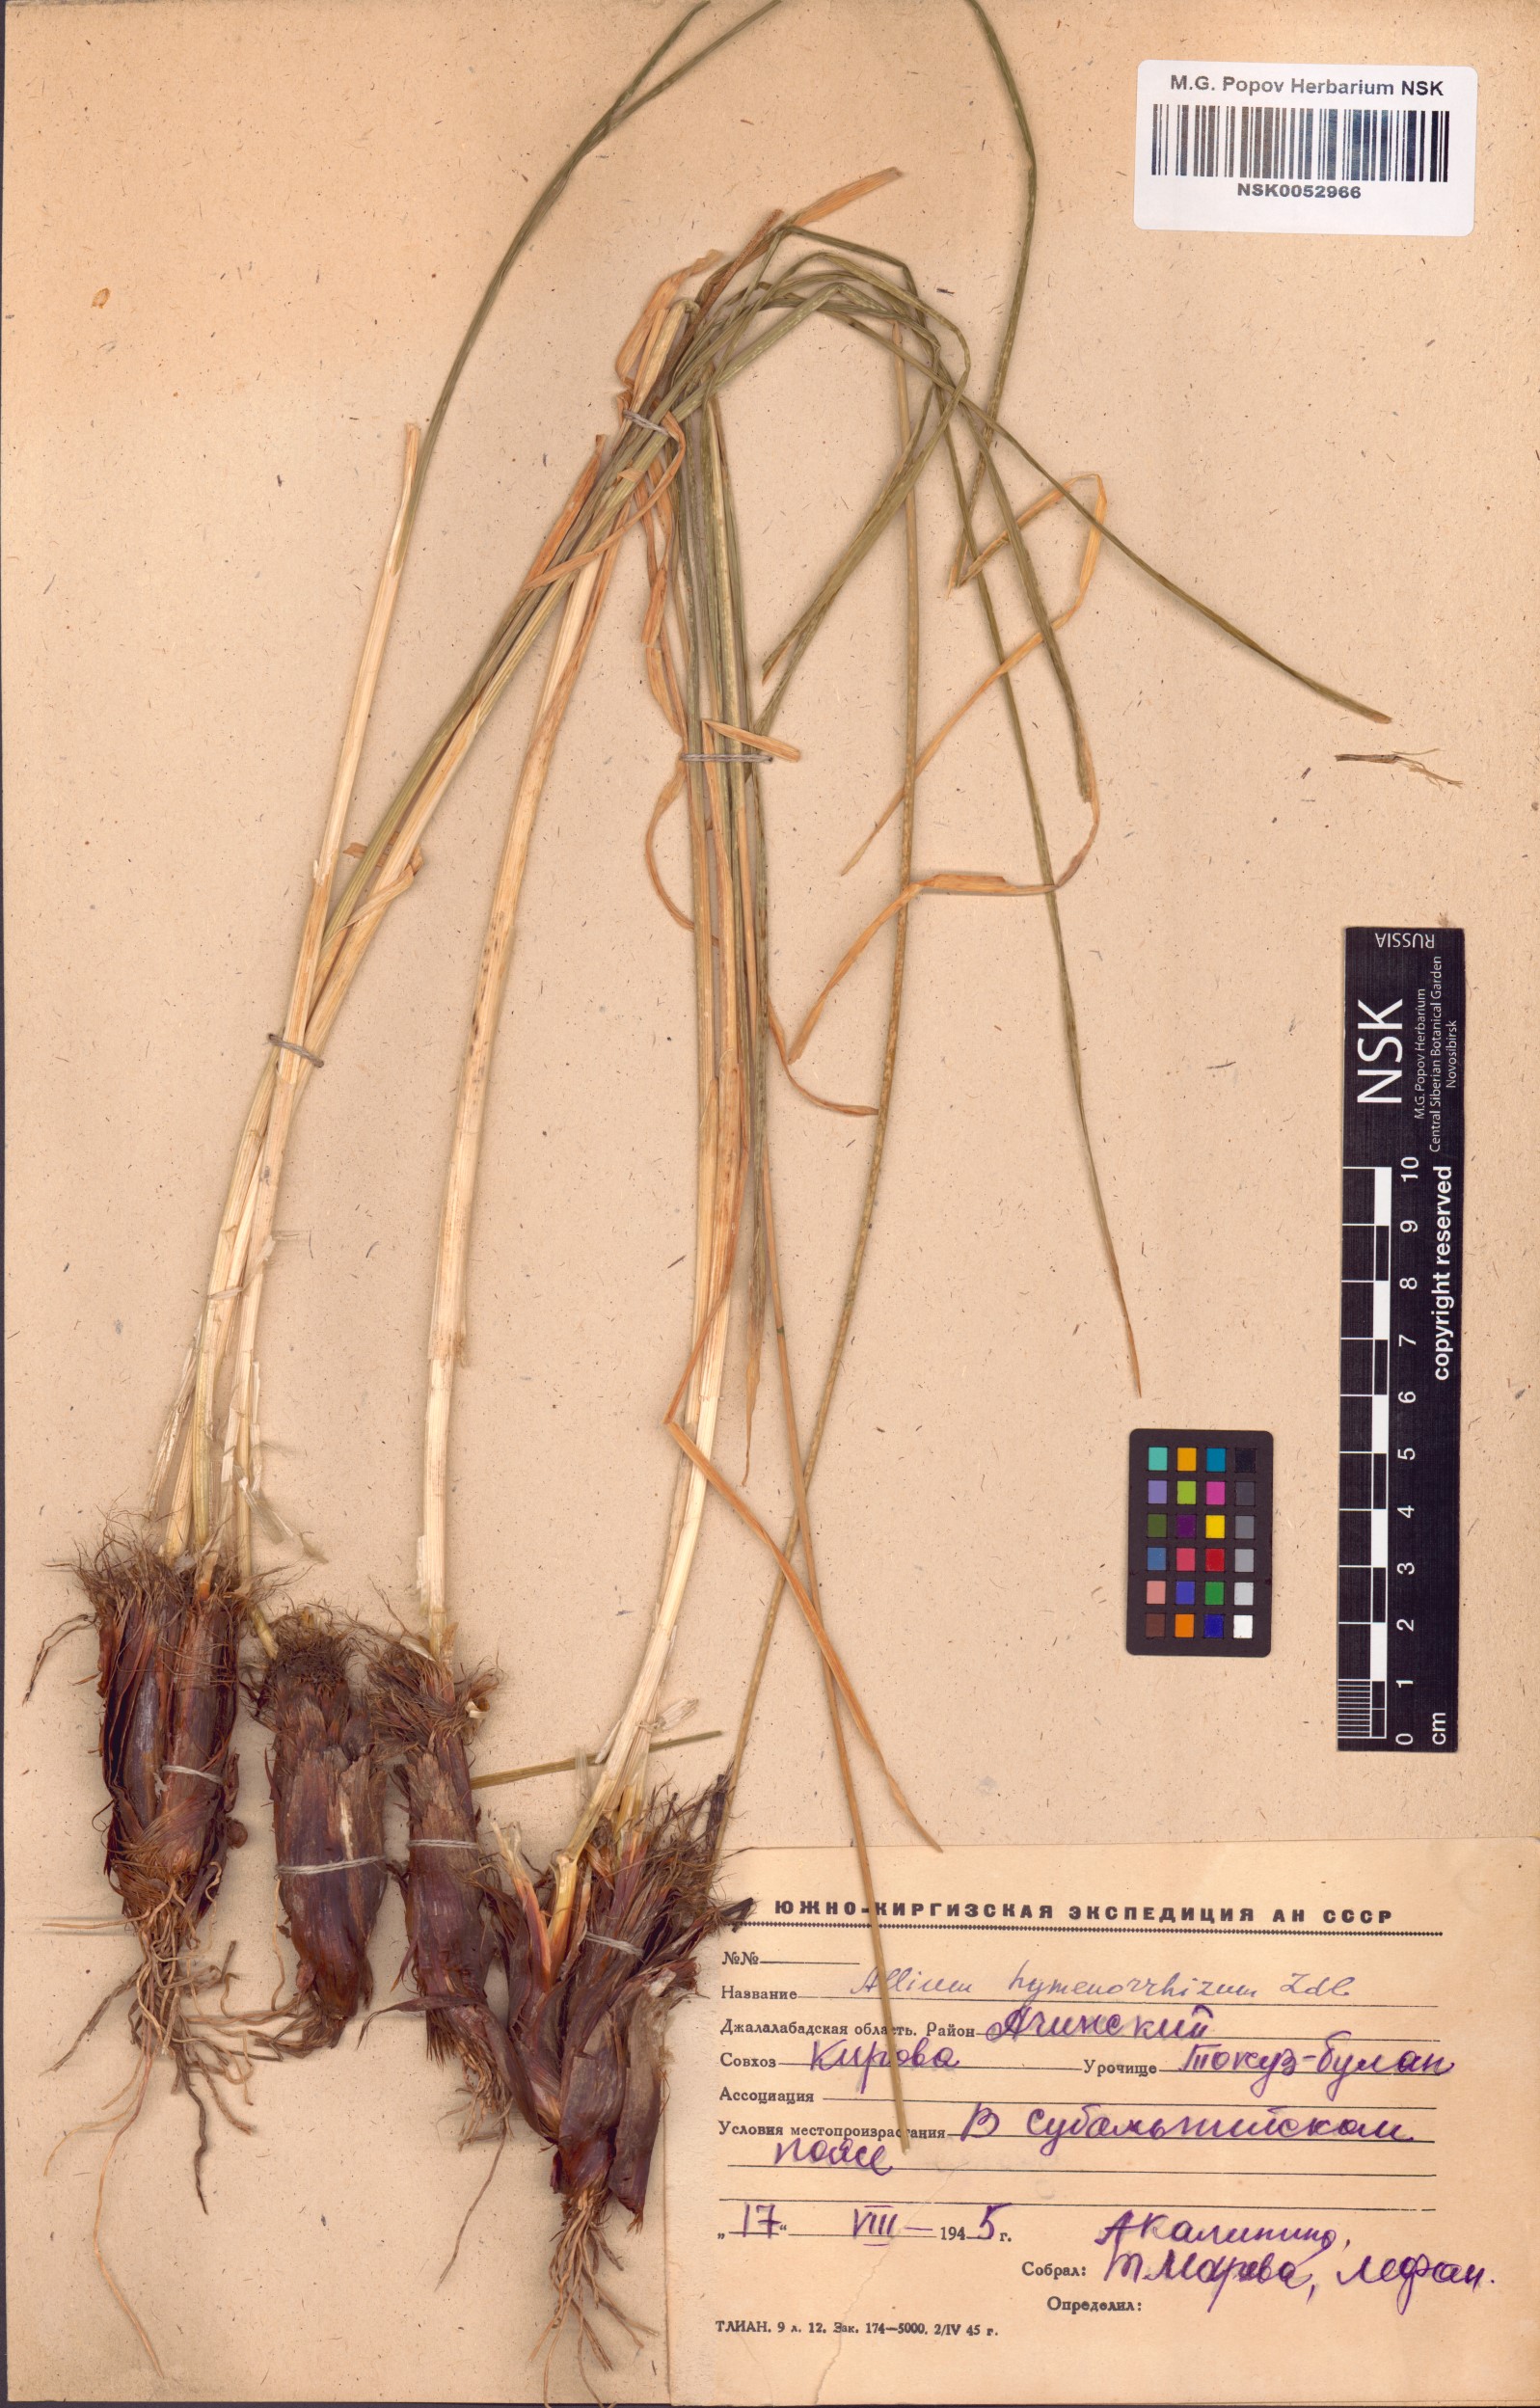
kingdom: Plantae
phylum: Tracheophyta
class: Liliopsida
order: Asparagales
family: Amaryllidaceae
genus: Allium
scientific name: Allium hymenorhizum
